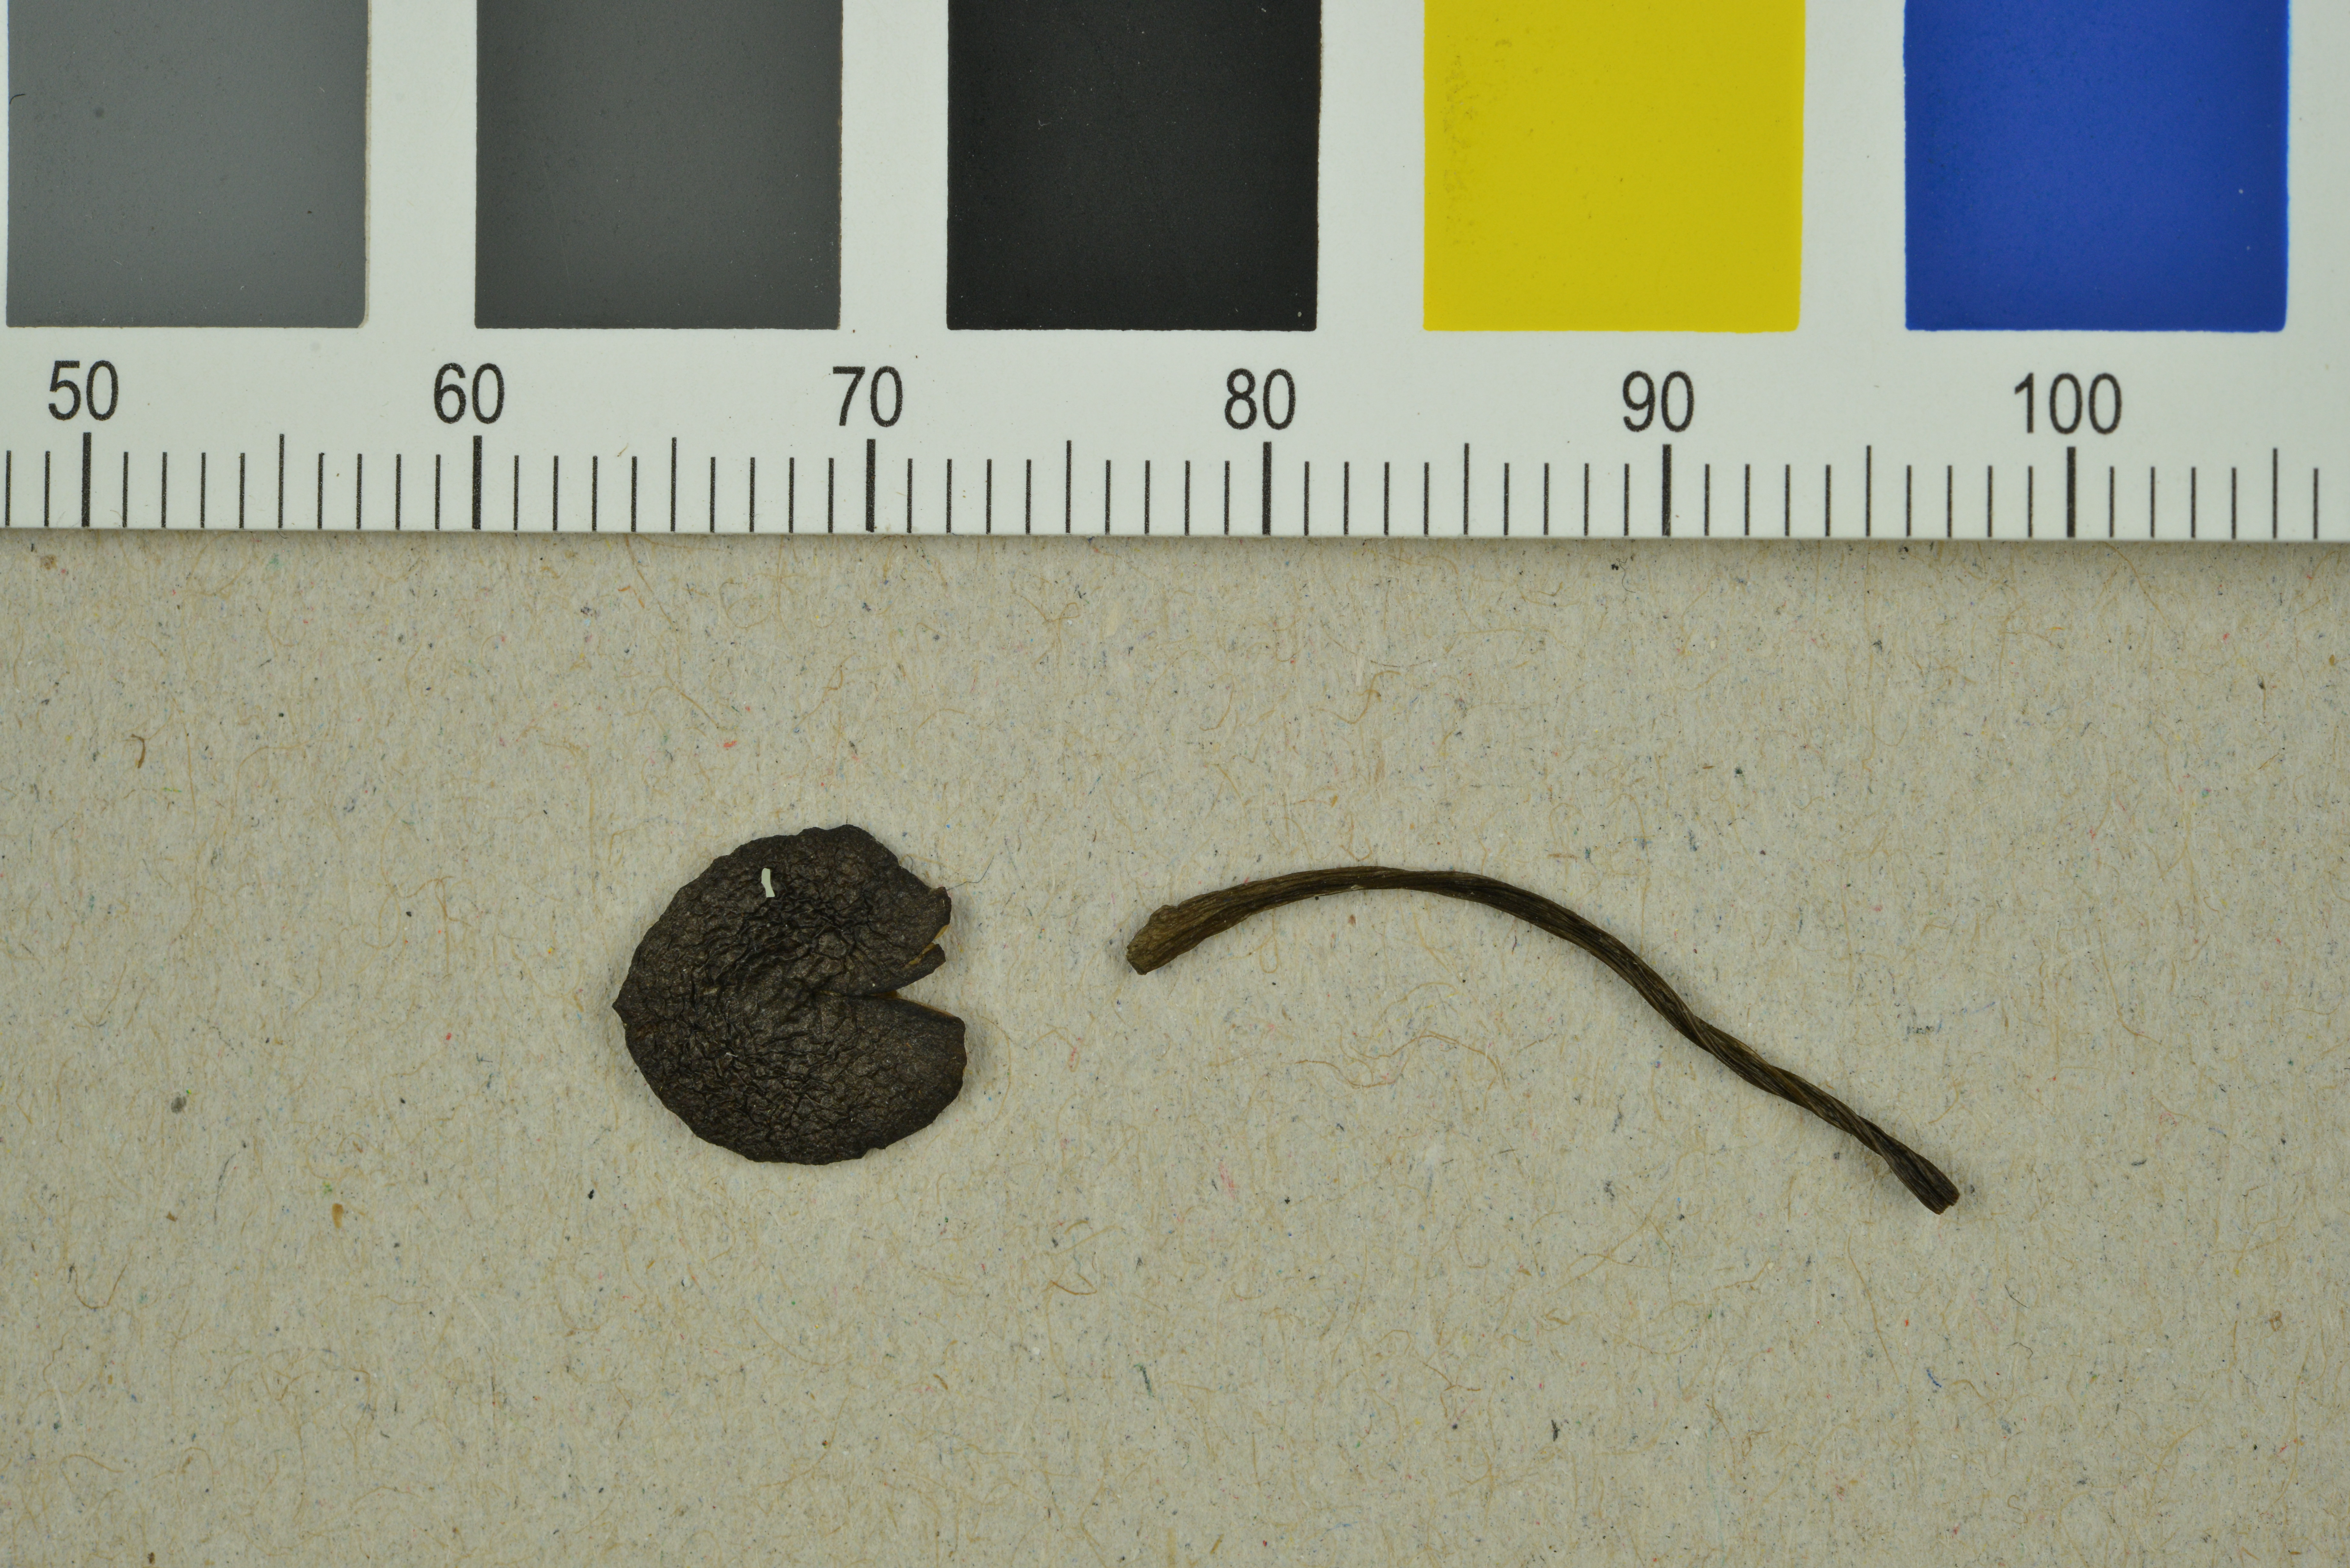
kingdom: Fungi
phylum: Basidiomycota
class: Agaricomycetes
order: Agaricales
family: Entolomataceae
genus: Entoloma
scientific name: Entoloma brunneicoeruleum
